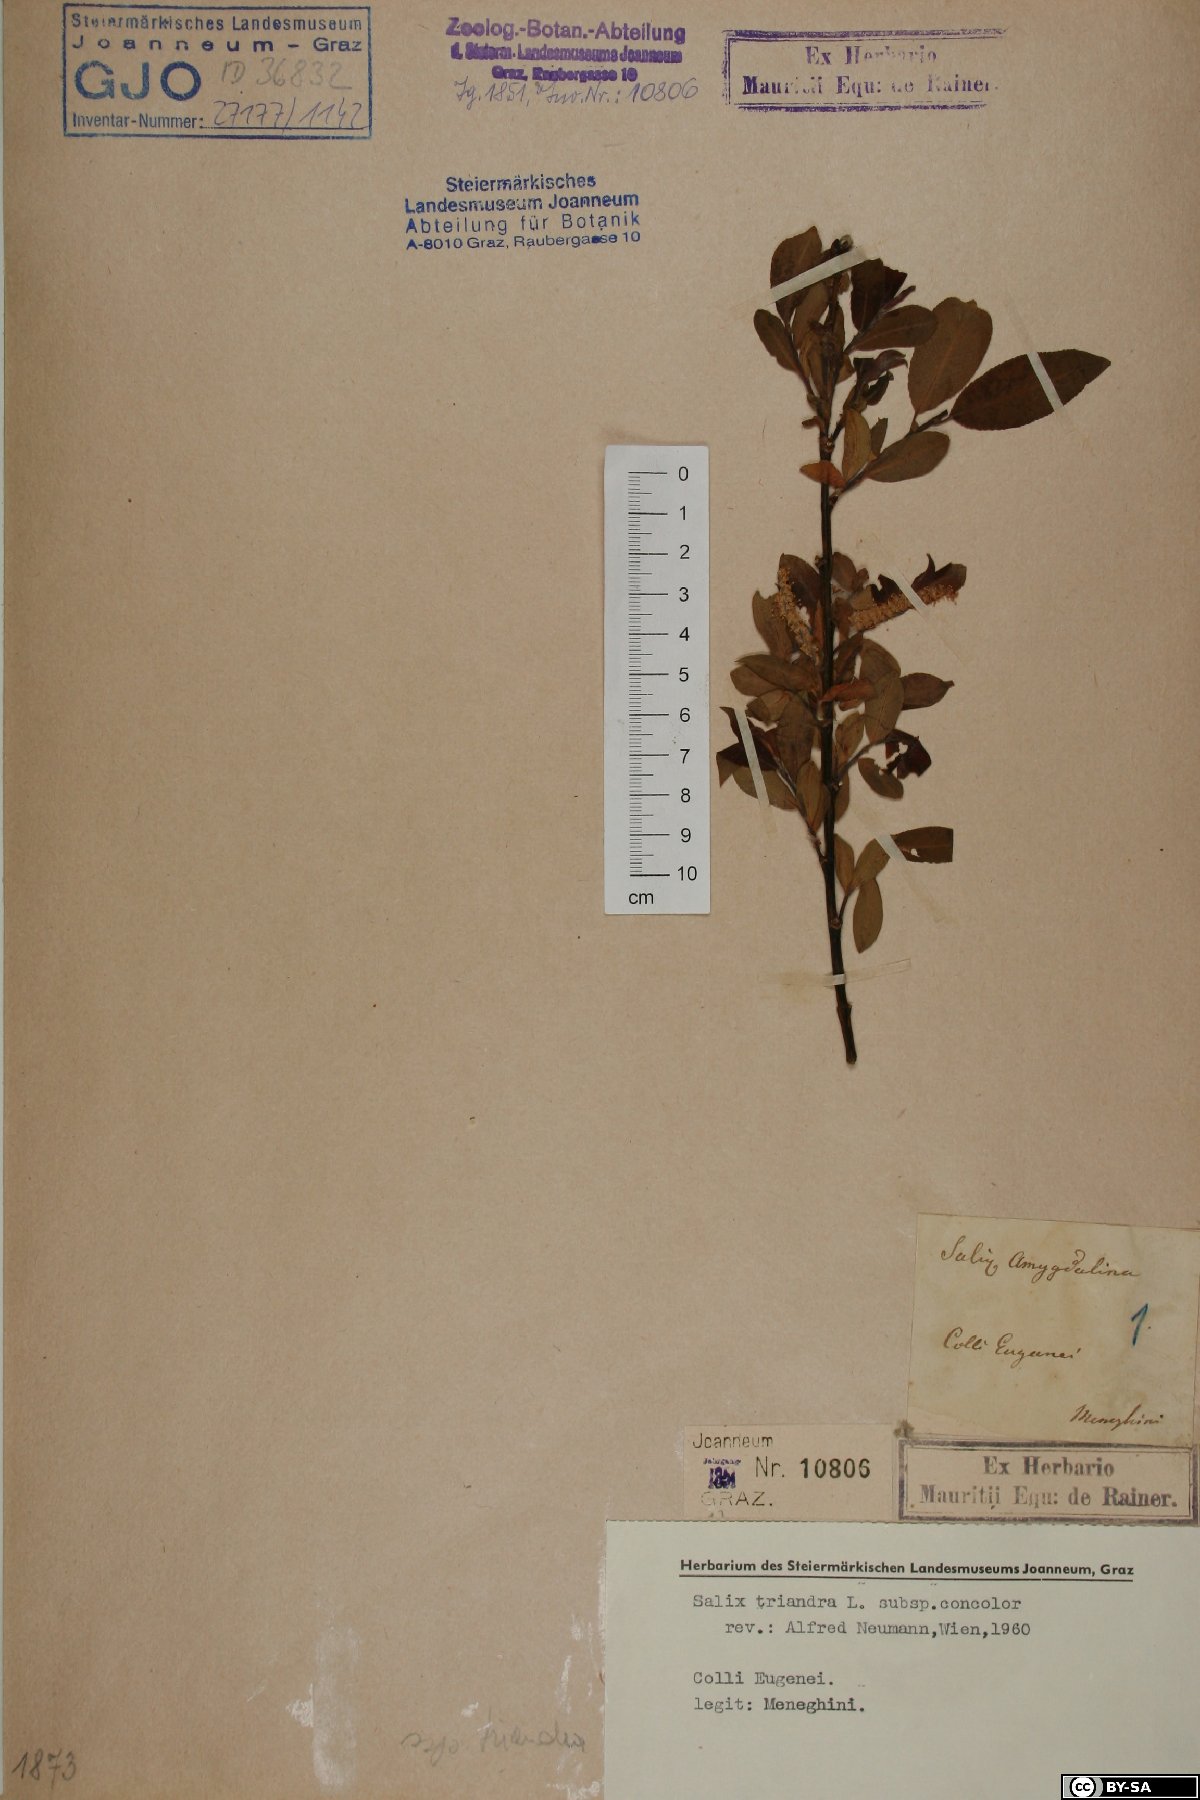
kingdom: Plantae
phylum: Tracheophyta
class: Magnoliopsida
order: Malpighiales
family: Salicaceae
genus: Salix
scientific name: Salix triandra
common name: Almond willow
